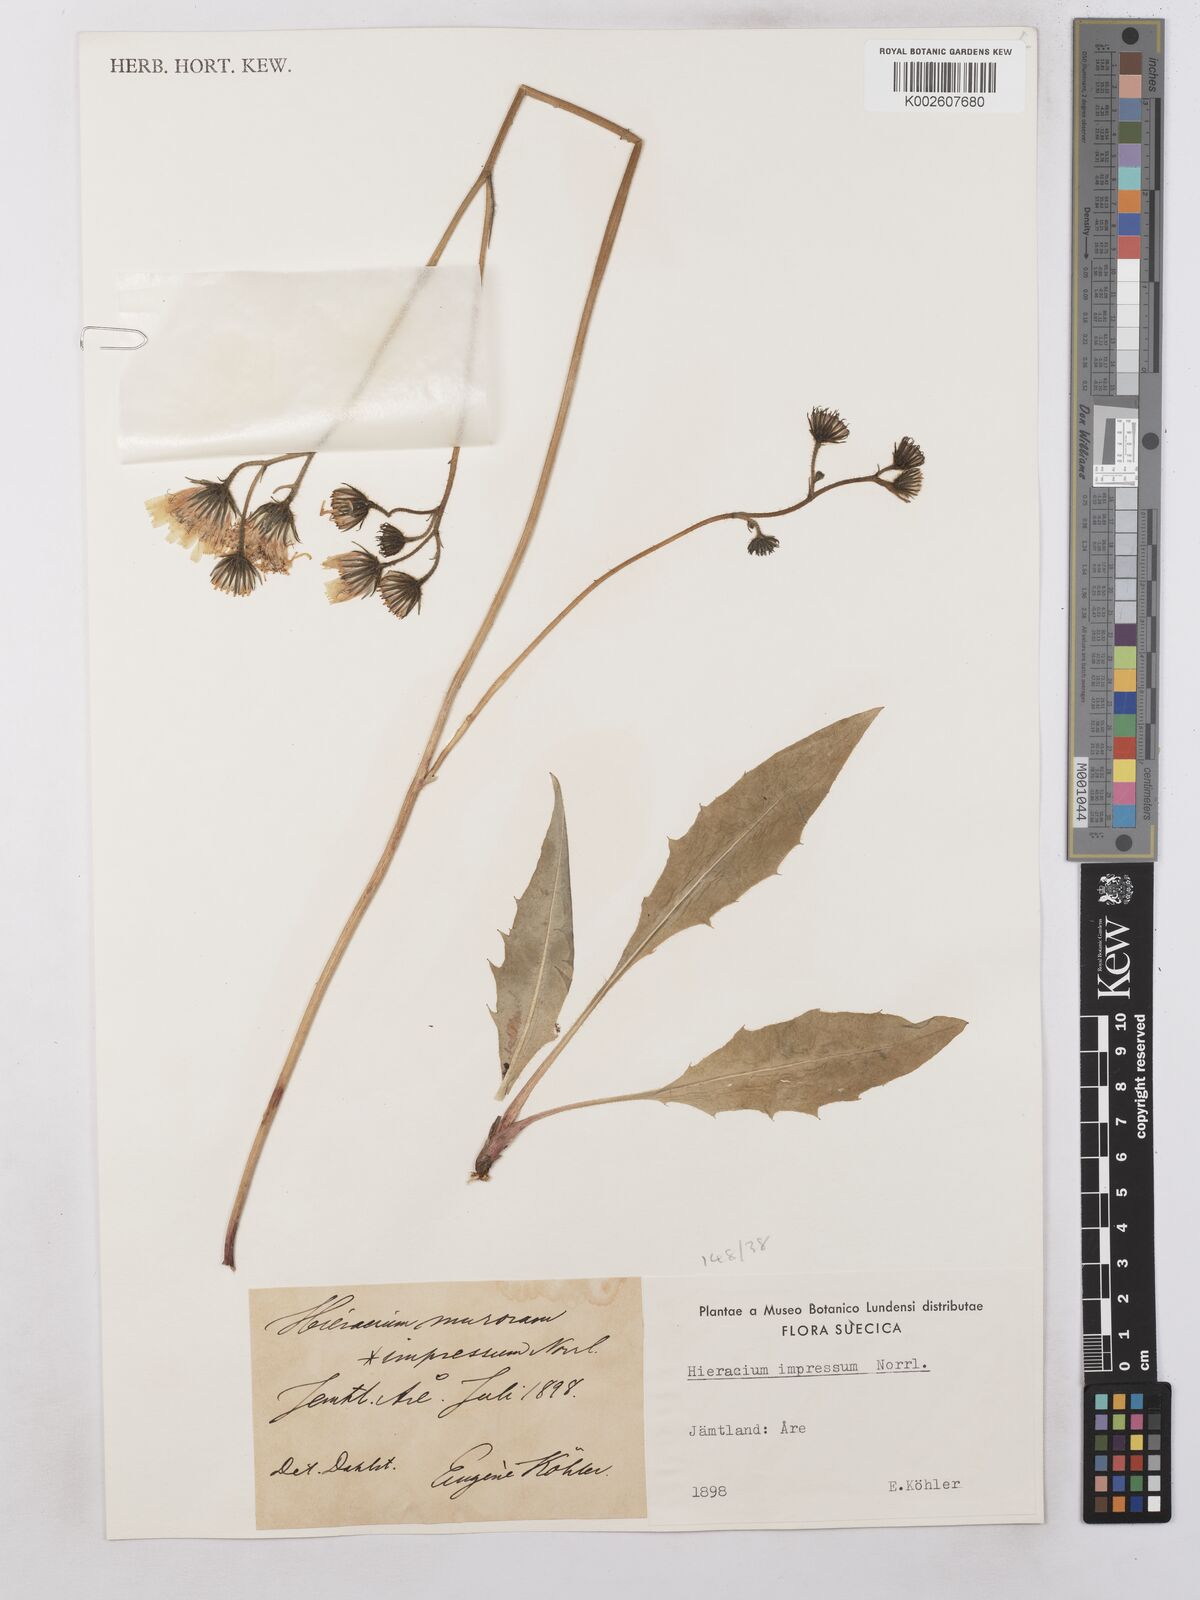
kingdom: Plantae
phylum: Tracheophyta
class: Magnoliopsida
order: Asterales
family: Asteraceae
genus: Hieracium
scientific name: Hieracium subramosum
